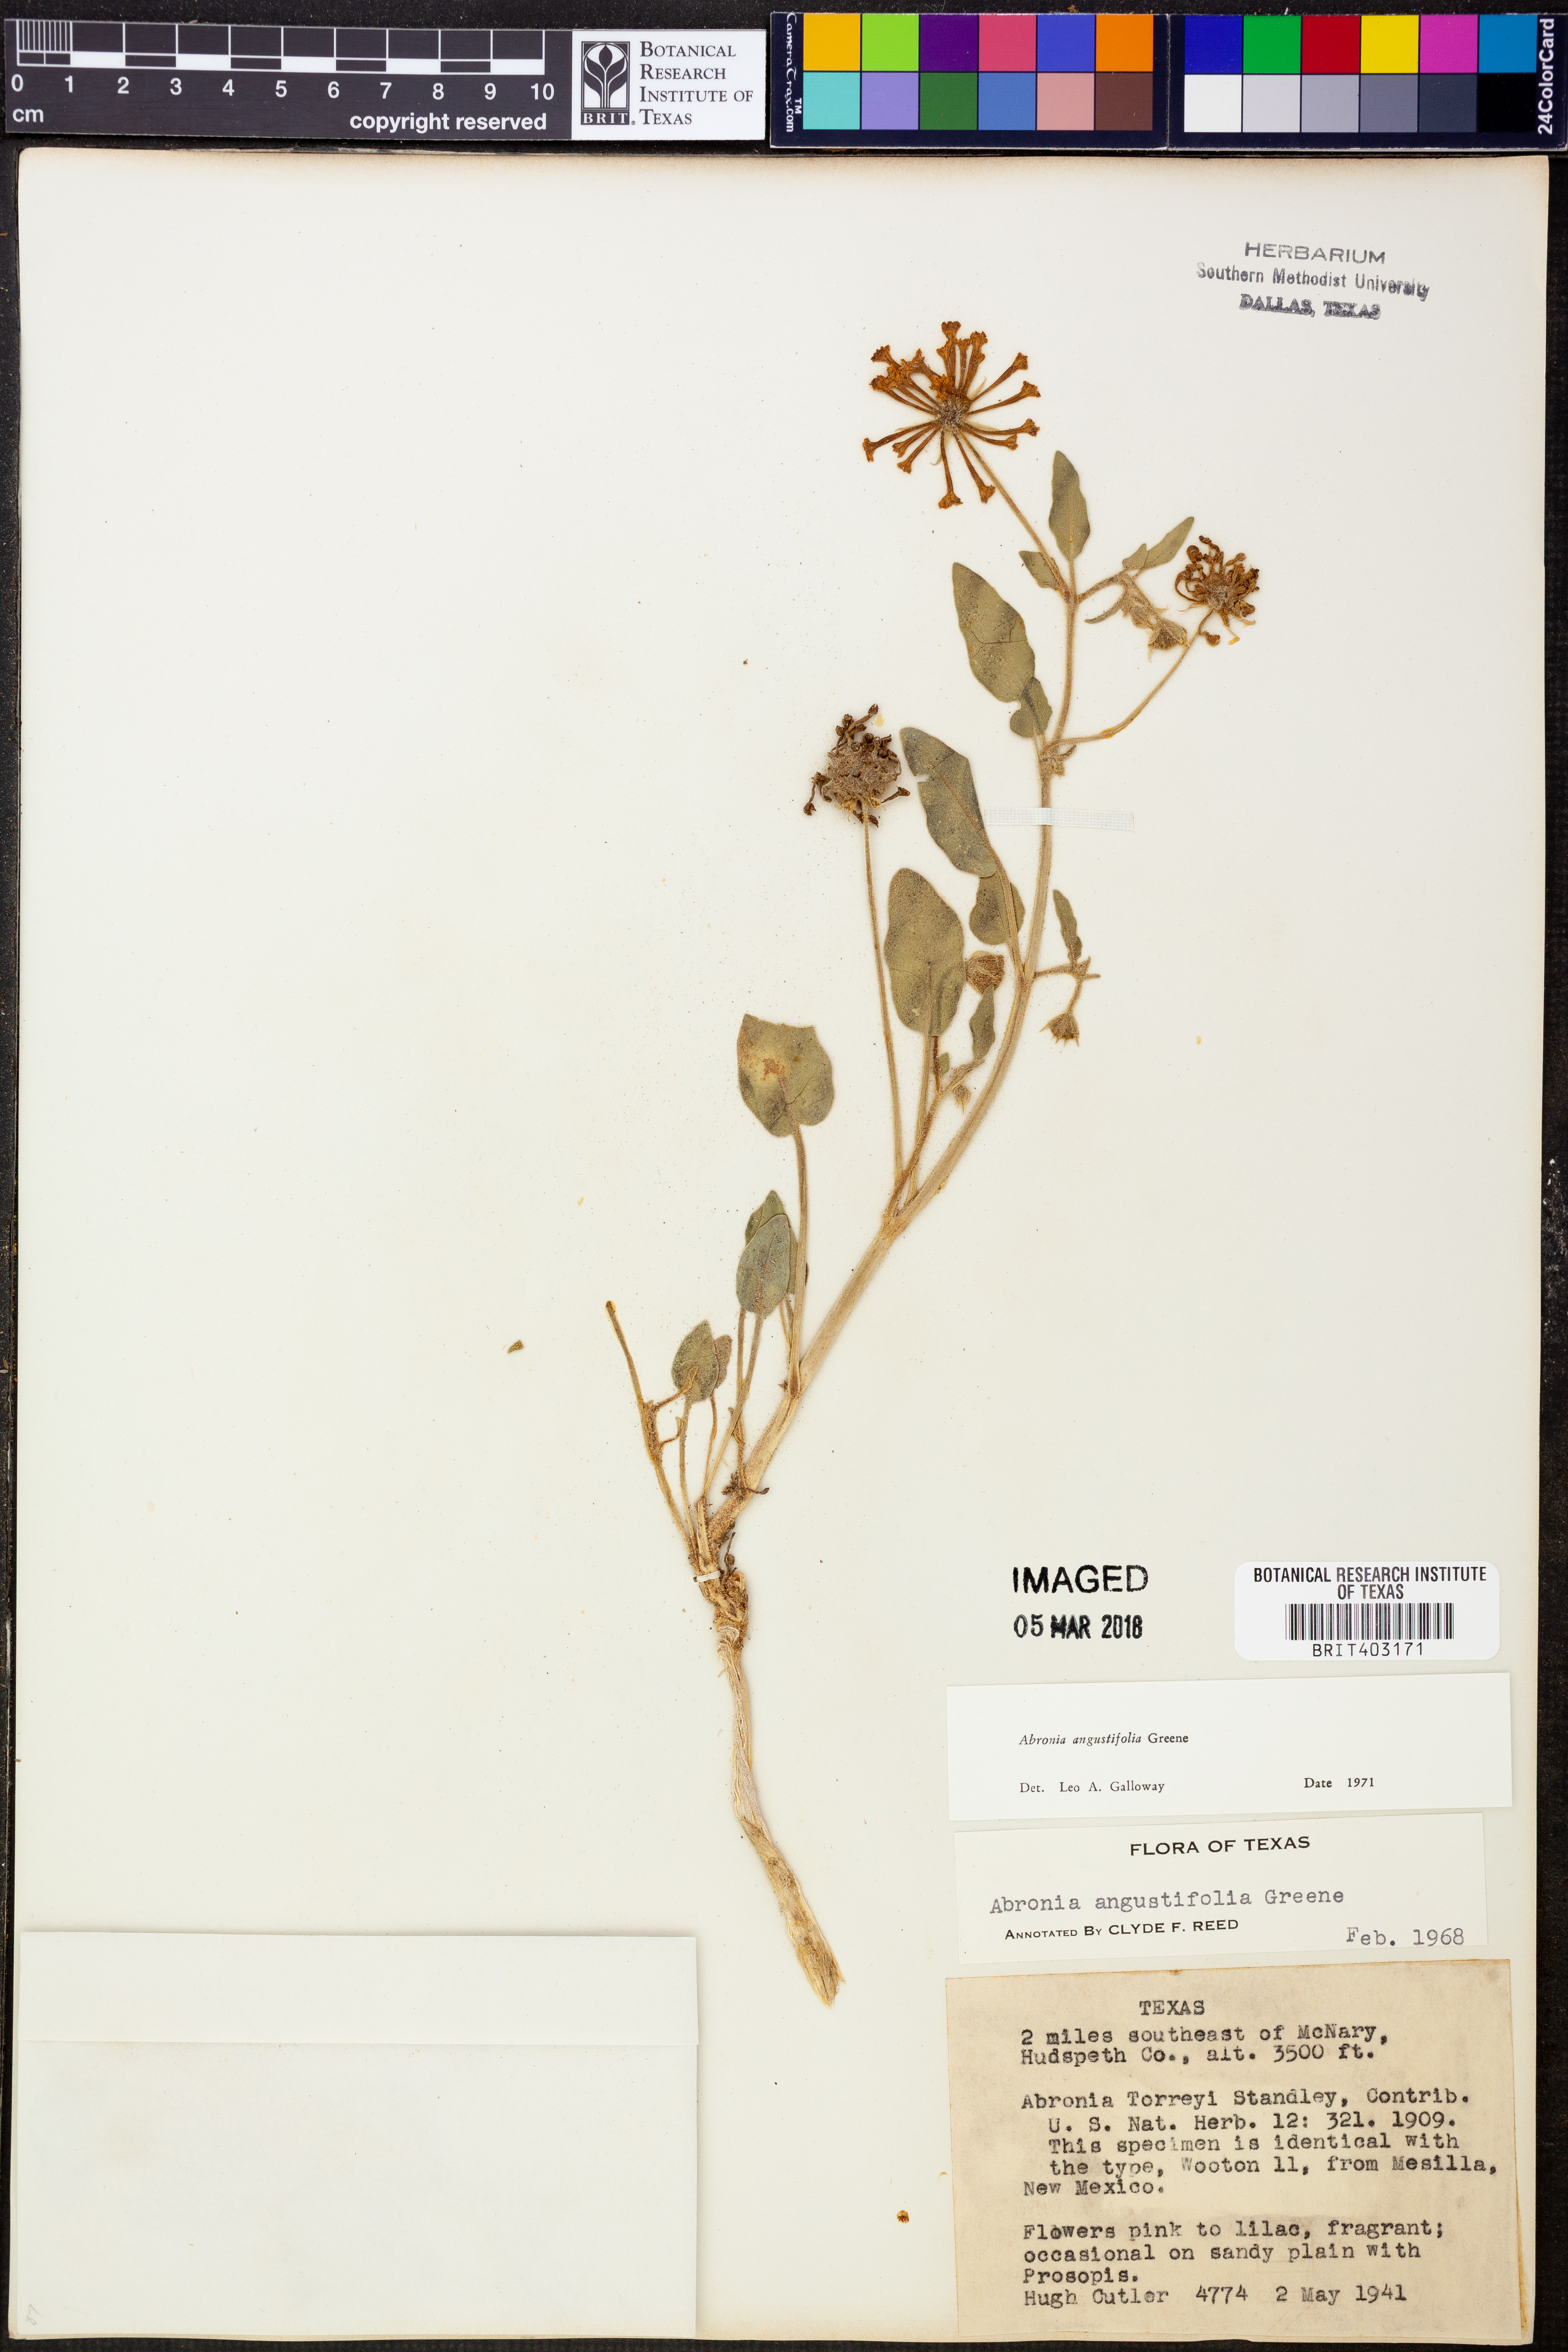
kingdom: Plantae
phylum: Tracheophyta
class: Magnoliopsida
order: Caryophyllales
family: Nyctaginaceae
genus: Abronia
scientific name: Abronia angustifolia
